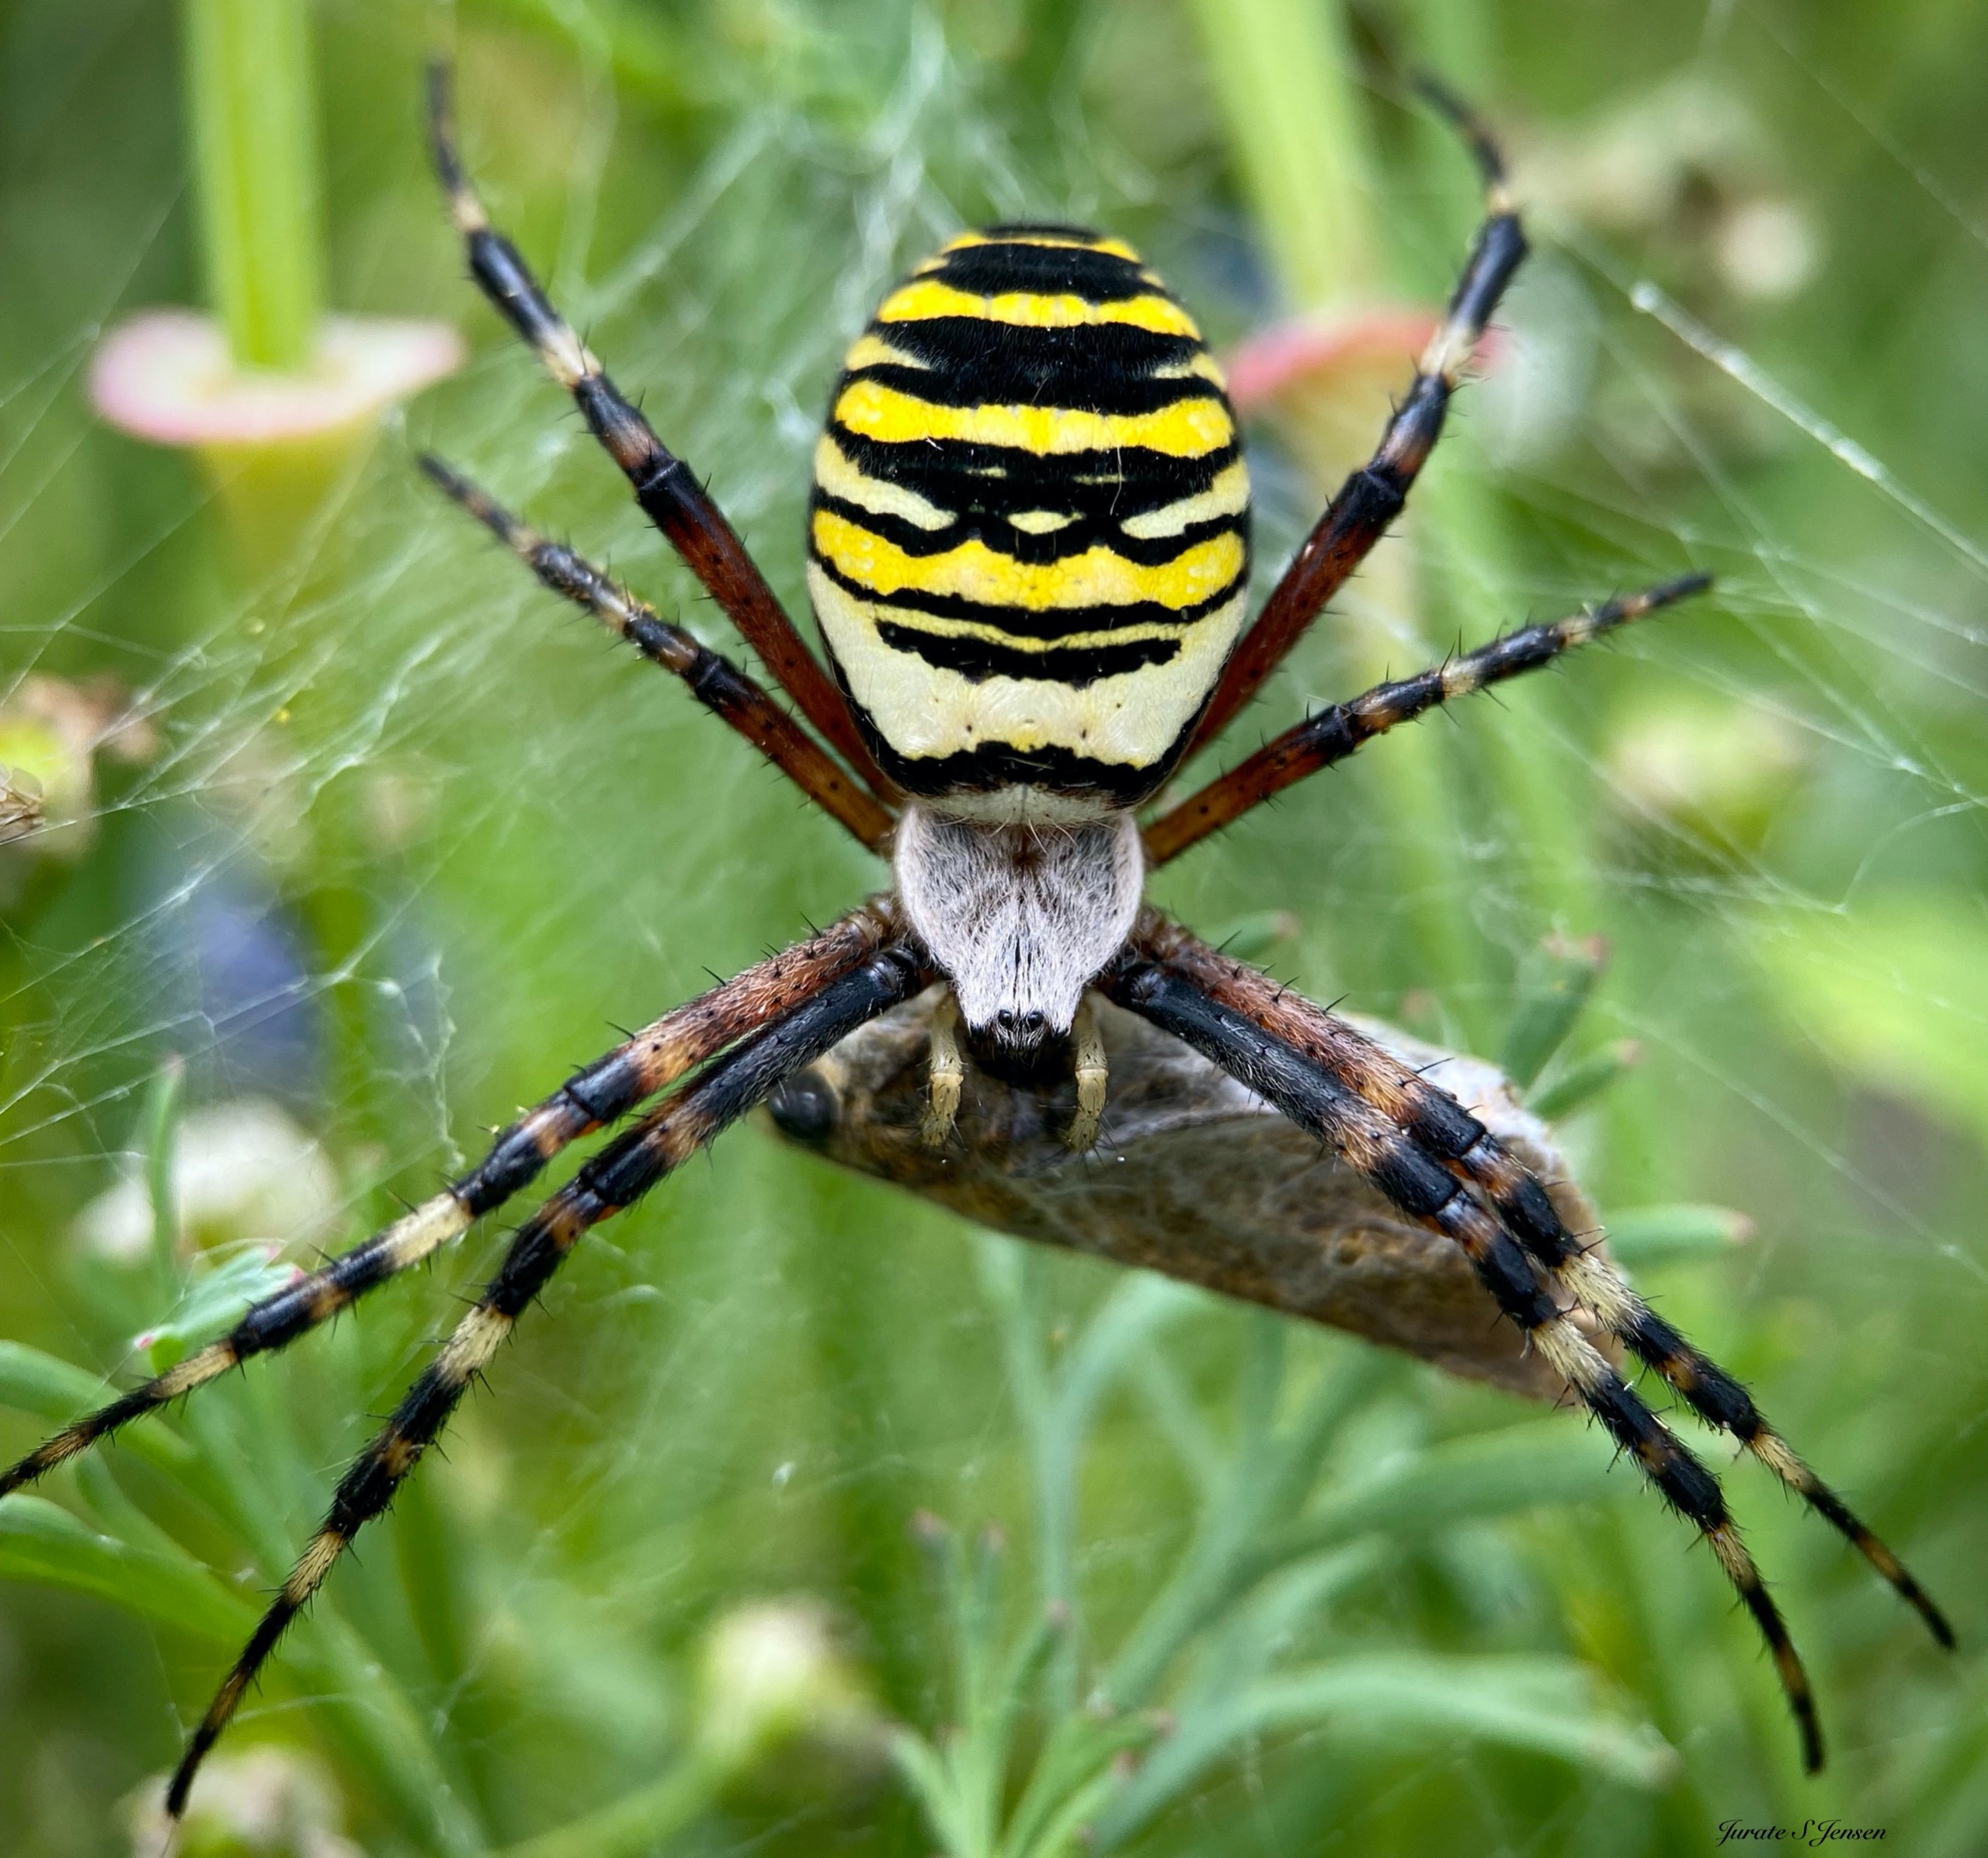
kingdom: Animalia
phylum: Arthropoda
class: Arachnida
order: Araneae
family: Araneidae
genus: Argiope
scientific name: Argiope bruennichi
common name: Hvepseedderkop
